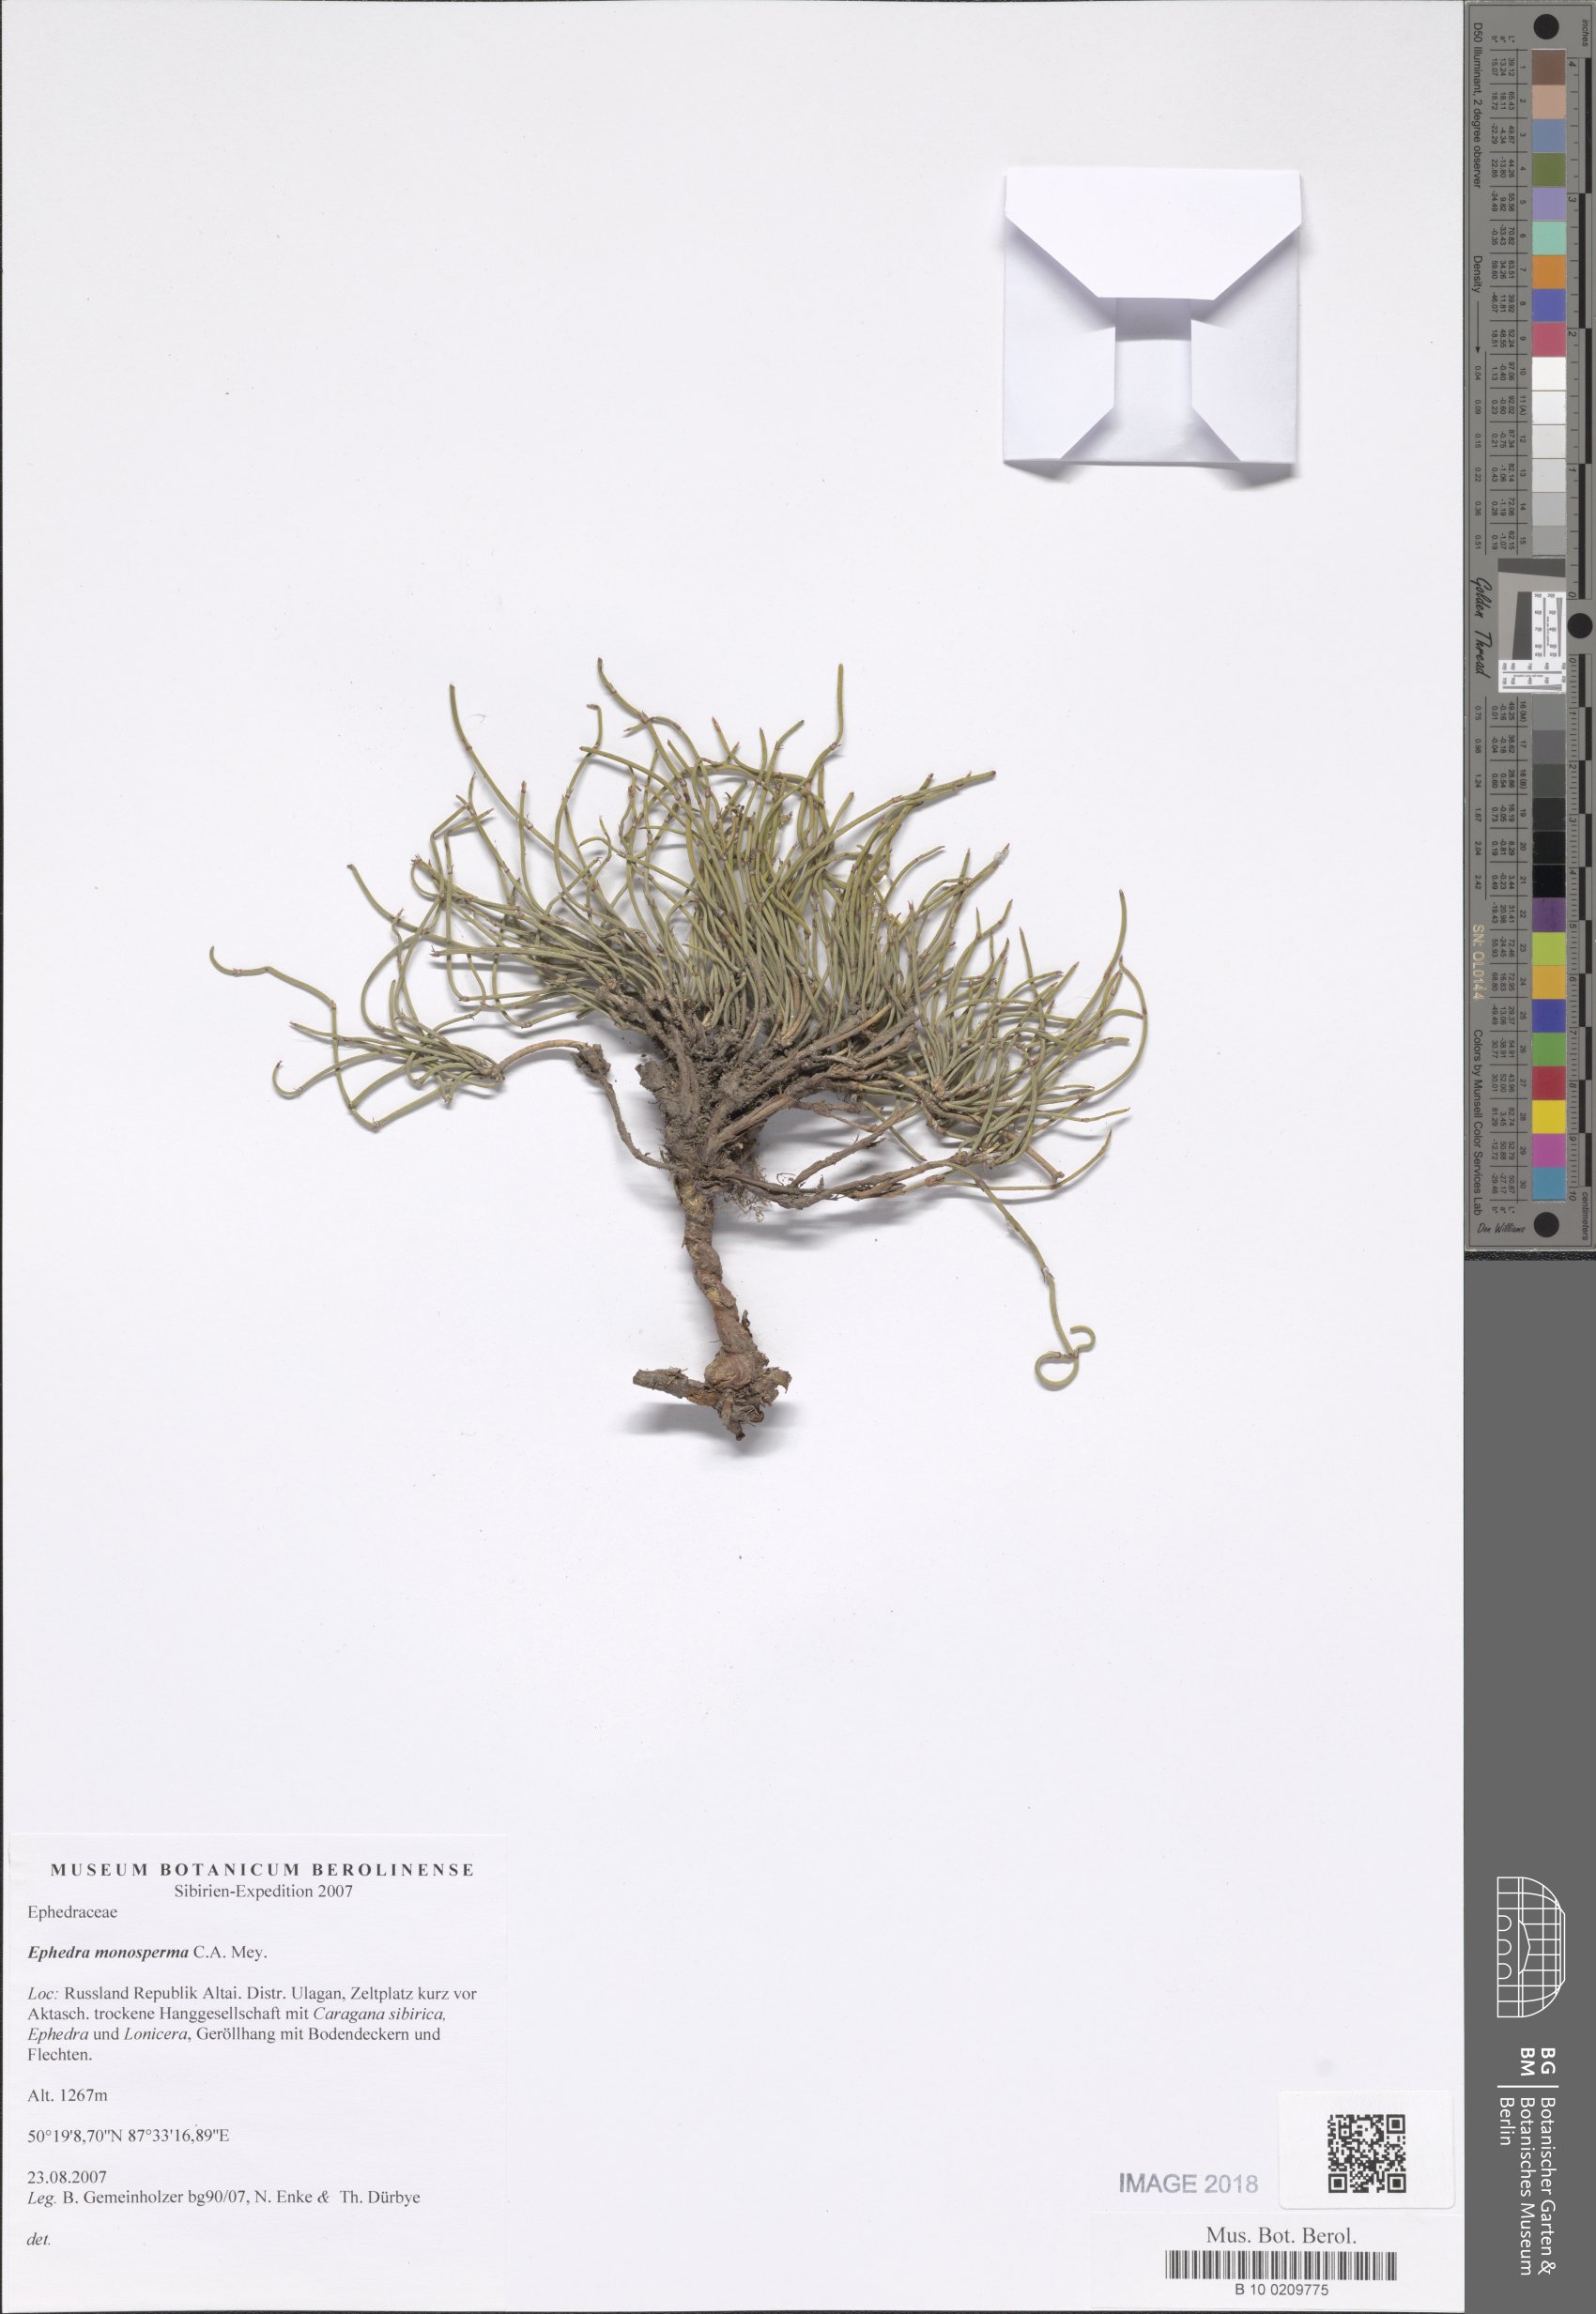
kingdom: Plantae
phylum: Tracheophyta
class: Gnetopsida
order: Ephedrales
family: Ephedraceae
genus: Ephedra
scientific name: Ephedra monosperma
